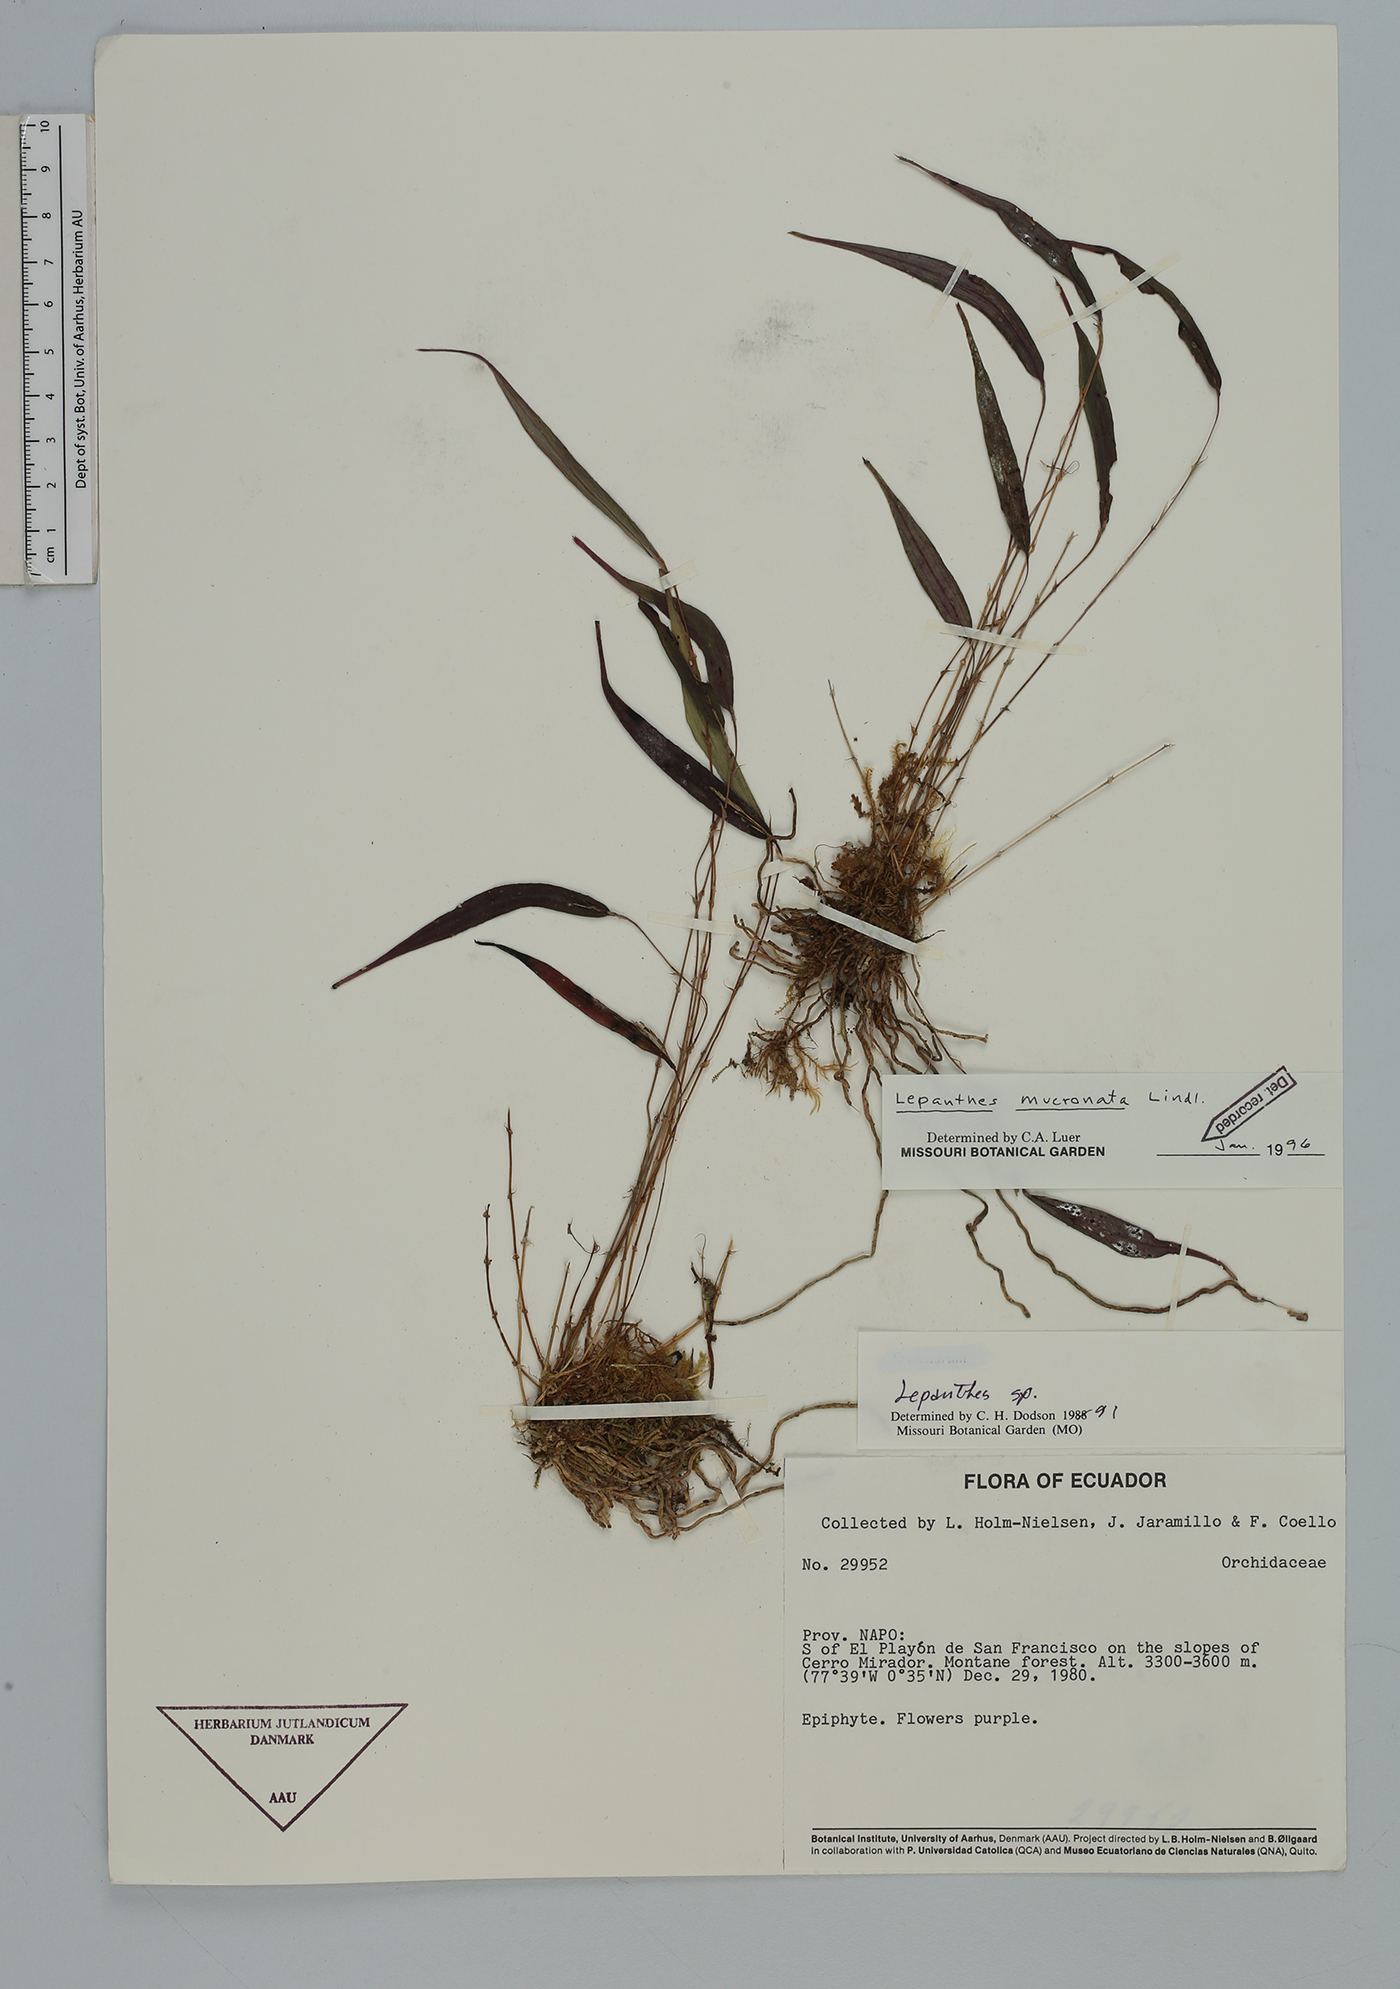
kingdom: Plantae
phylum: Tracheophyta
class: Liliopsida
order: Asparagales
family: Orchidaceae
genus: Lepanthes
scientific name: Lepanthes mucronata
